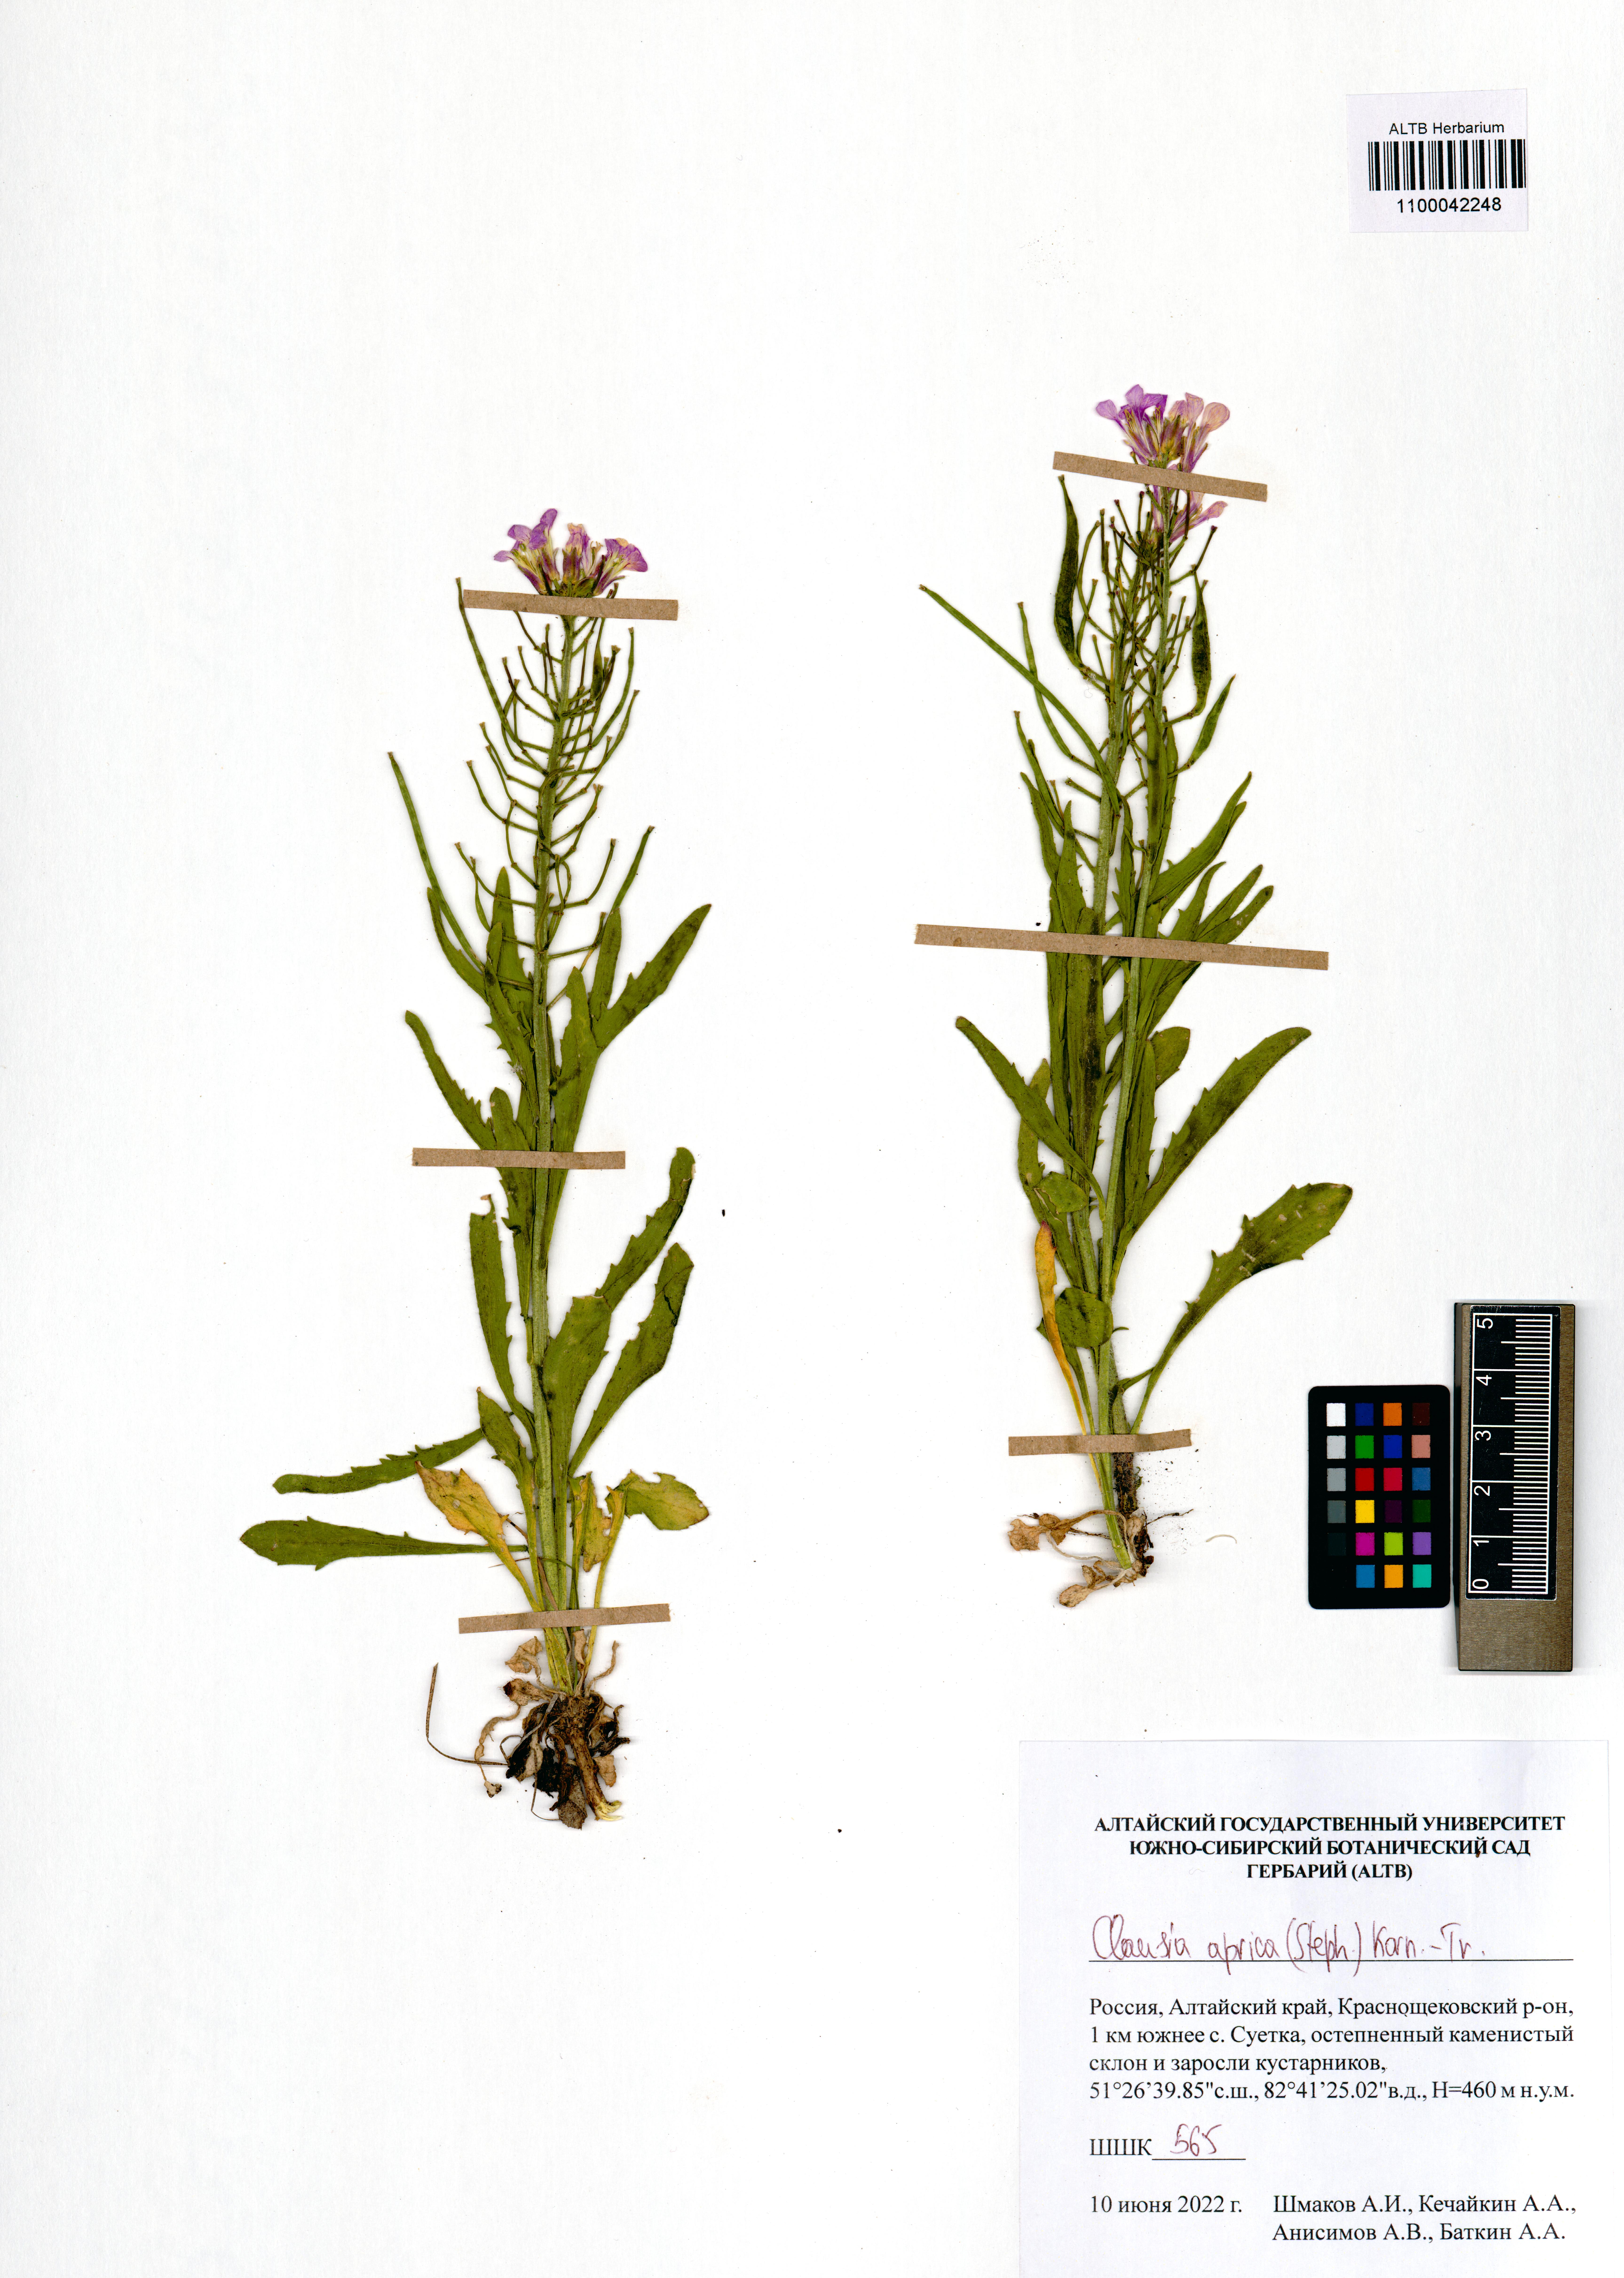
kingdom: Plantae
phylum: Tracheophyta
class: Magnoliopsida
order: Brassicales
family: Brassicaceae
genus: Clausia
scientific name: Clausia aprica
